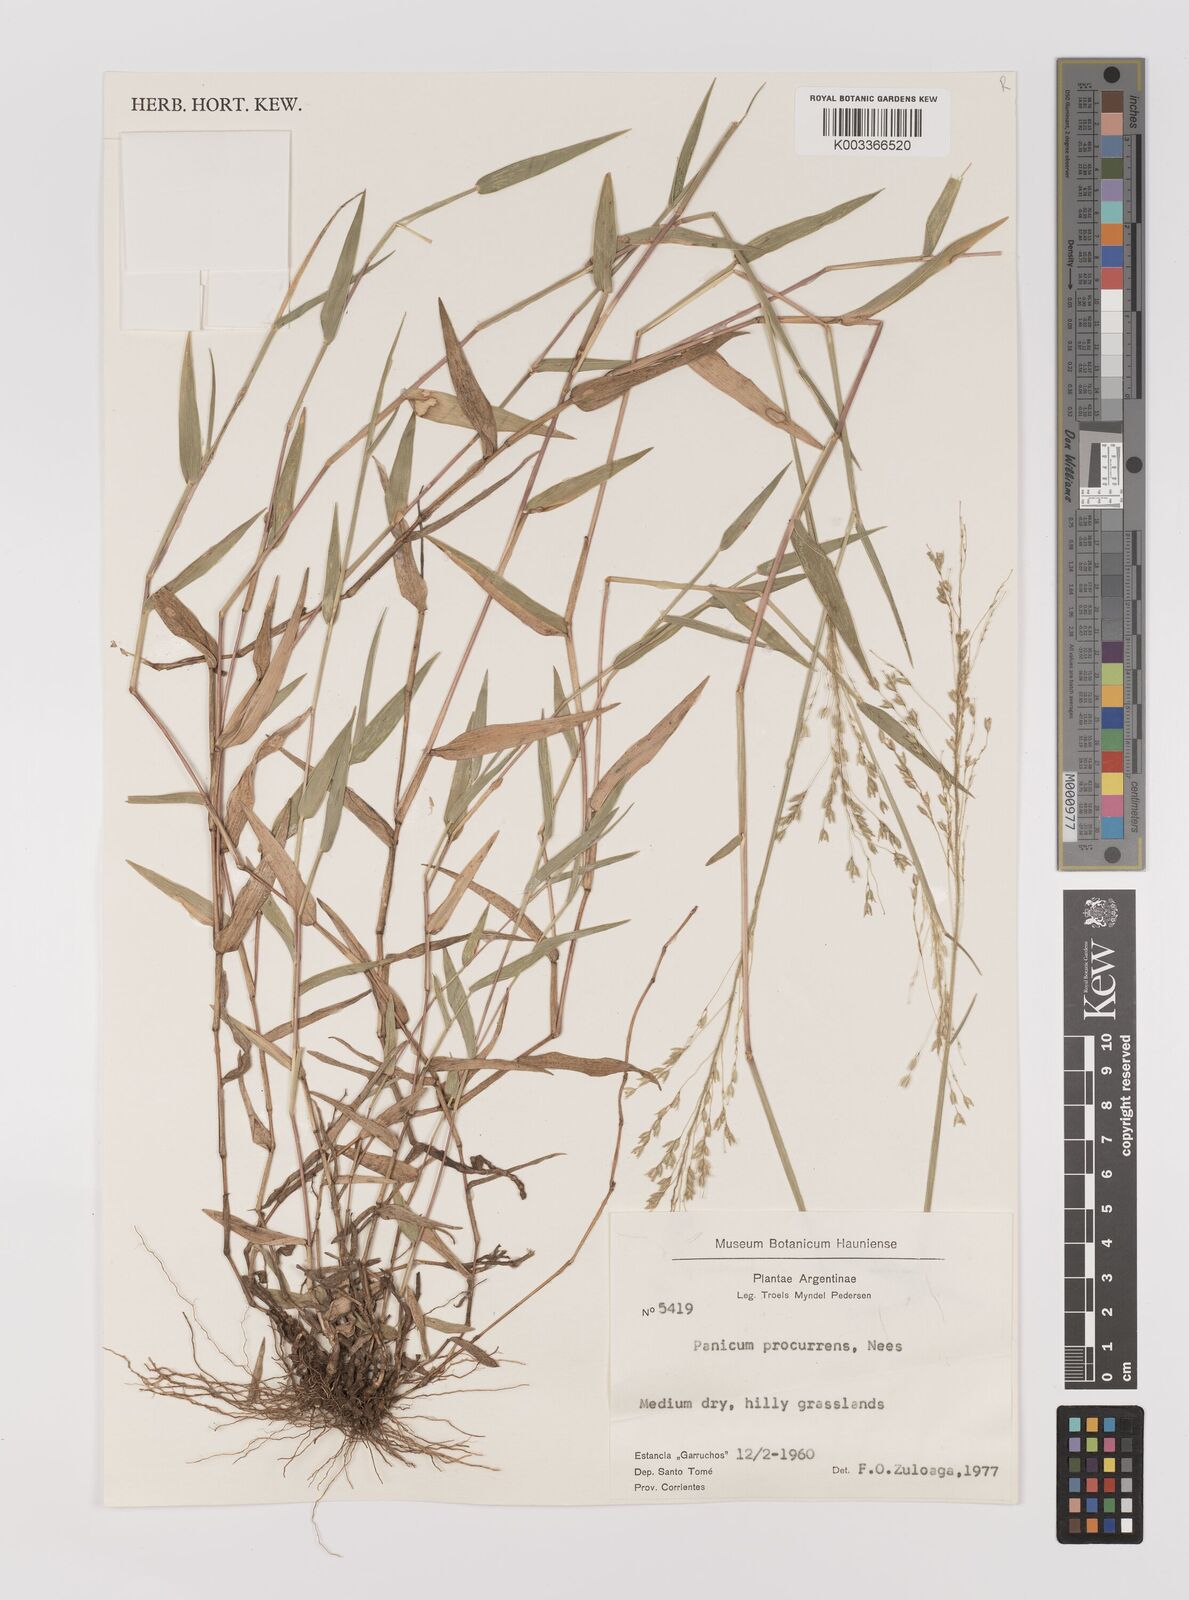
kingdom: Plantae
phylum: Tracheophyta
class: Liliopsida
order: Poales
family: Poaceae
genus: Oedochloa
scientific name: Oedochloa procurrens
